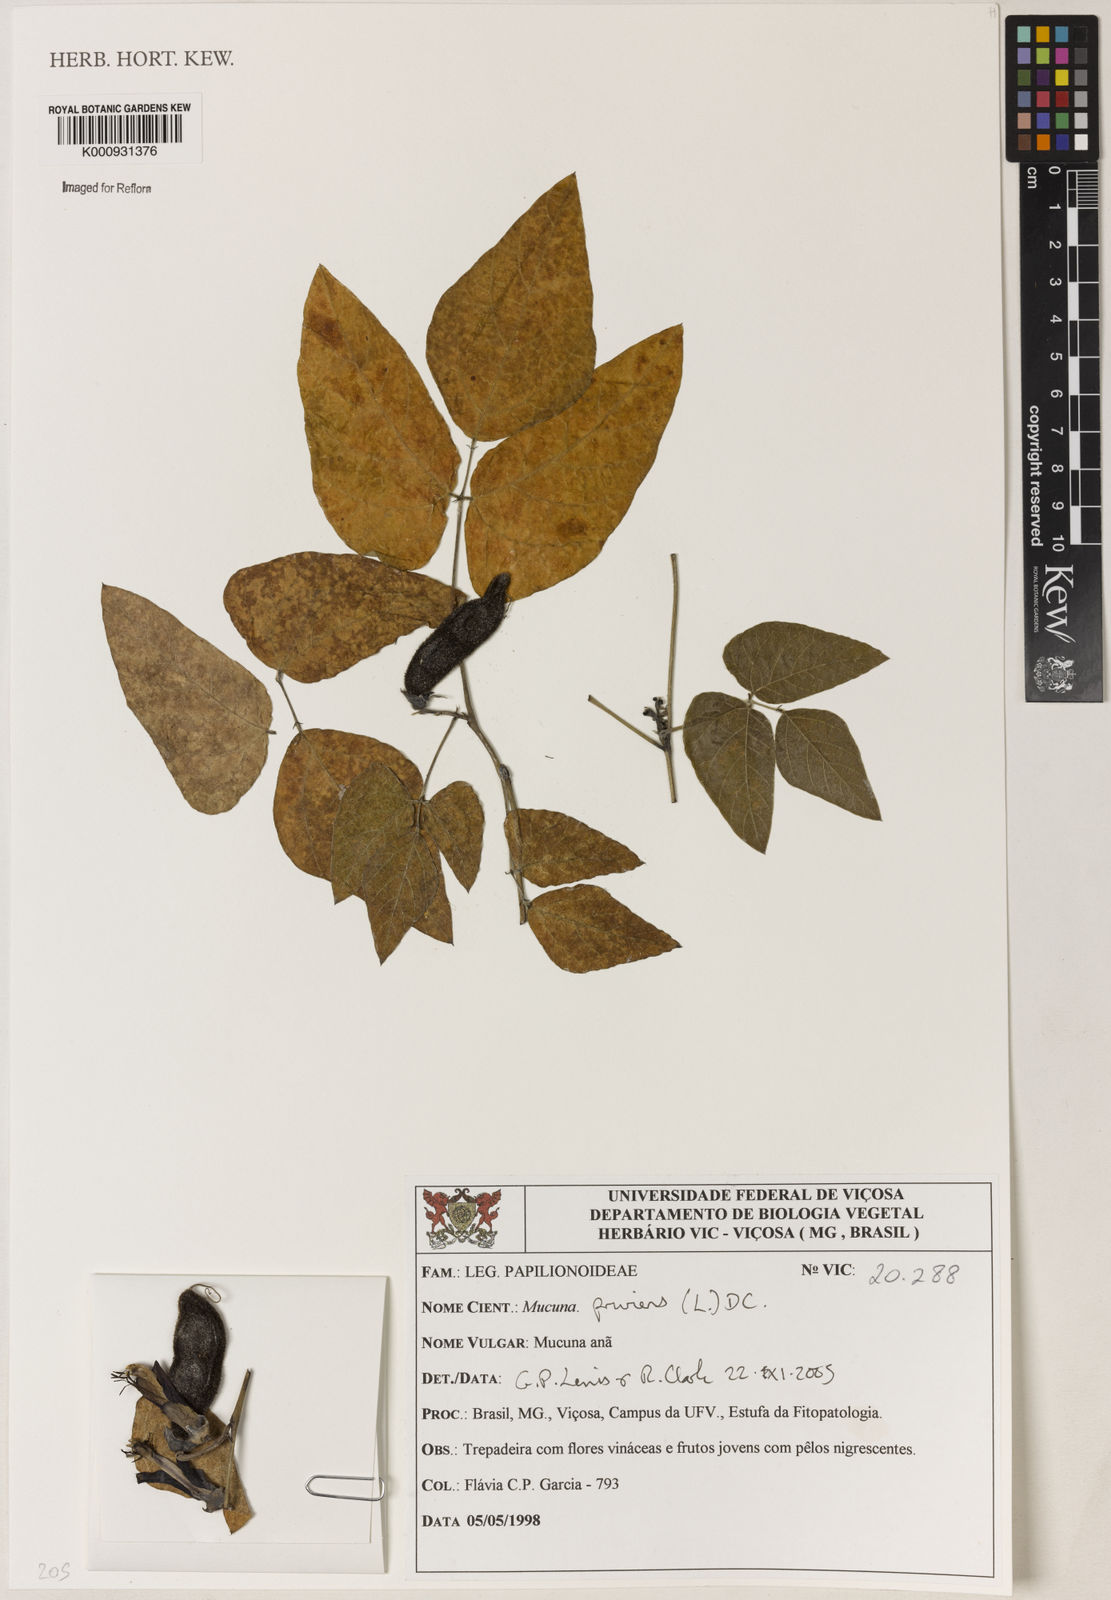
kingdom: Plantae
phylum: Tracheophyta
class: Magnoliopsida
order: Fabales
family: Fabaceae
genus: Mucuna
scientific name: Mucuna pruriens
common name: Cow-itch
